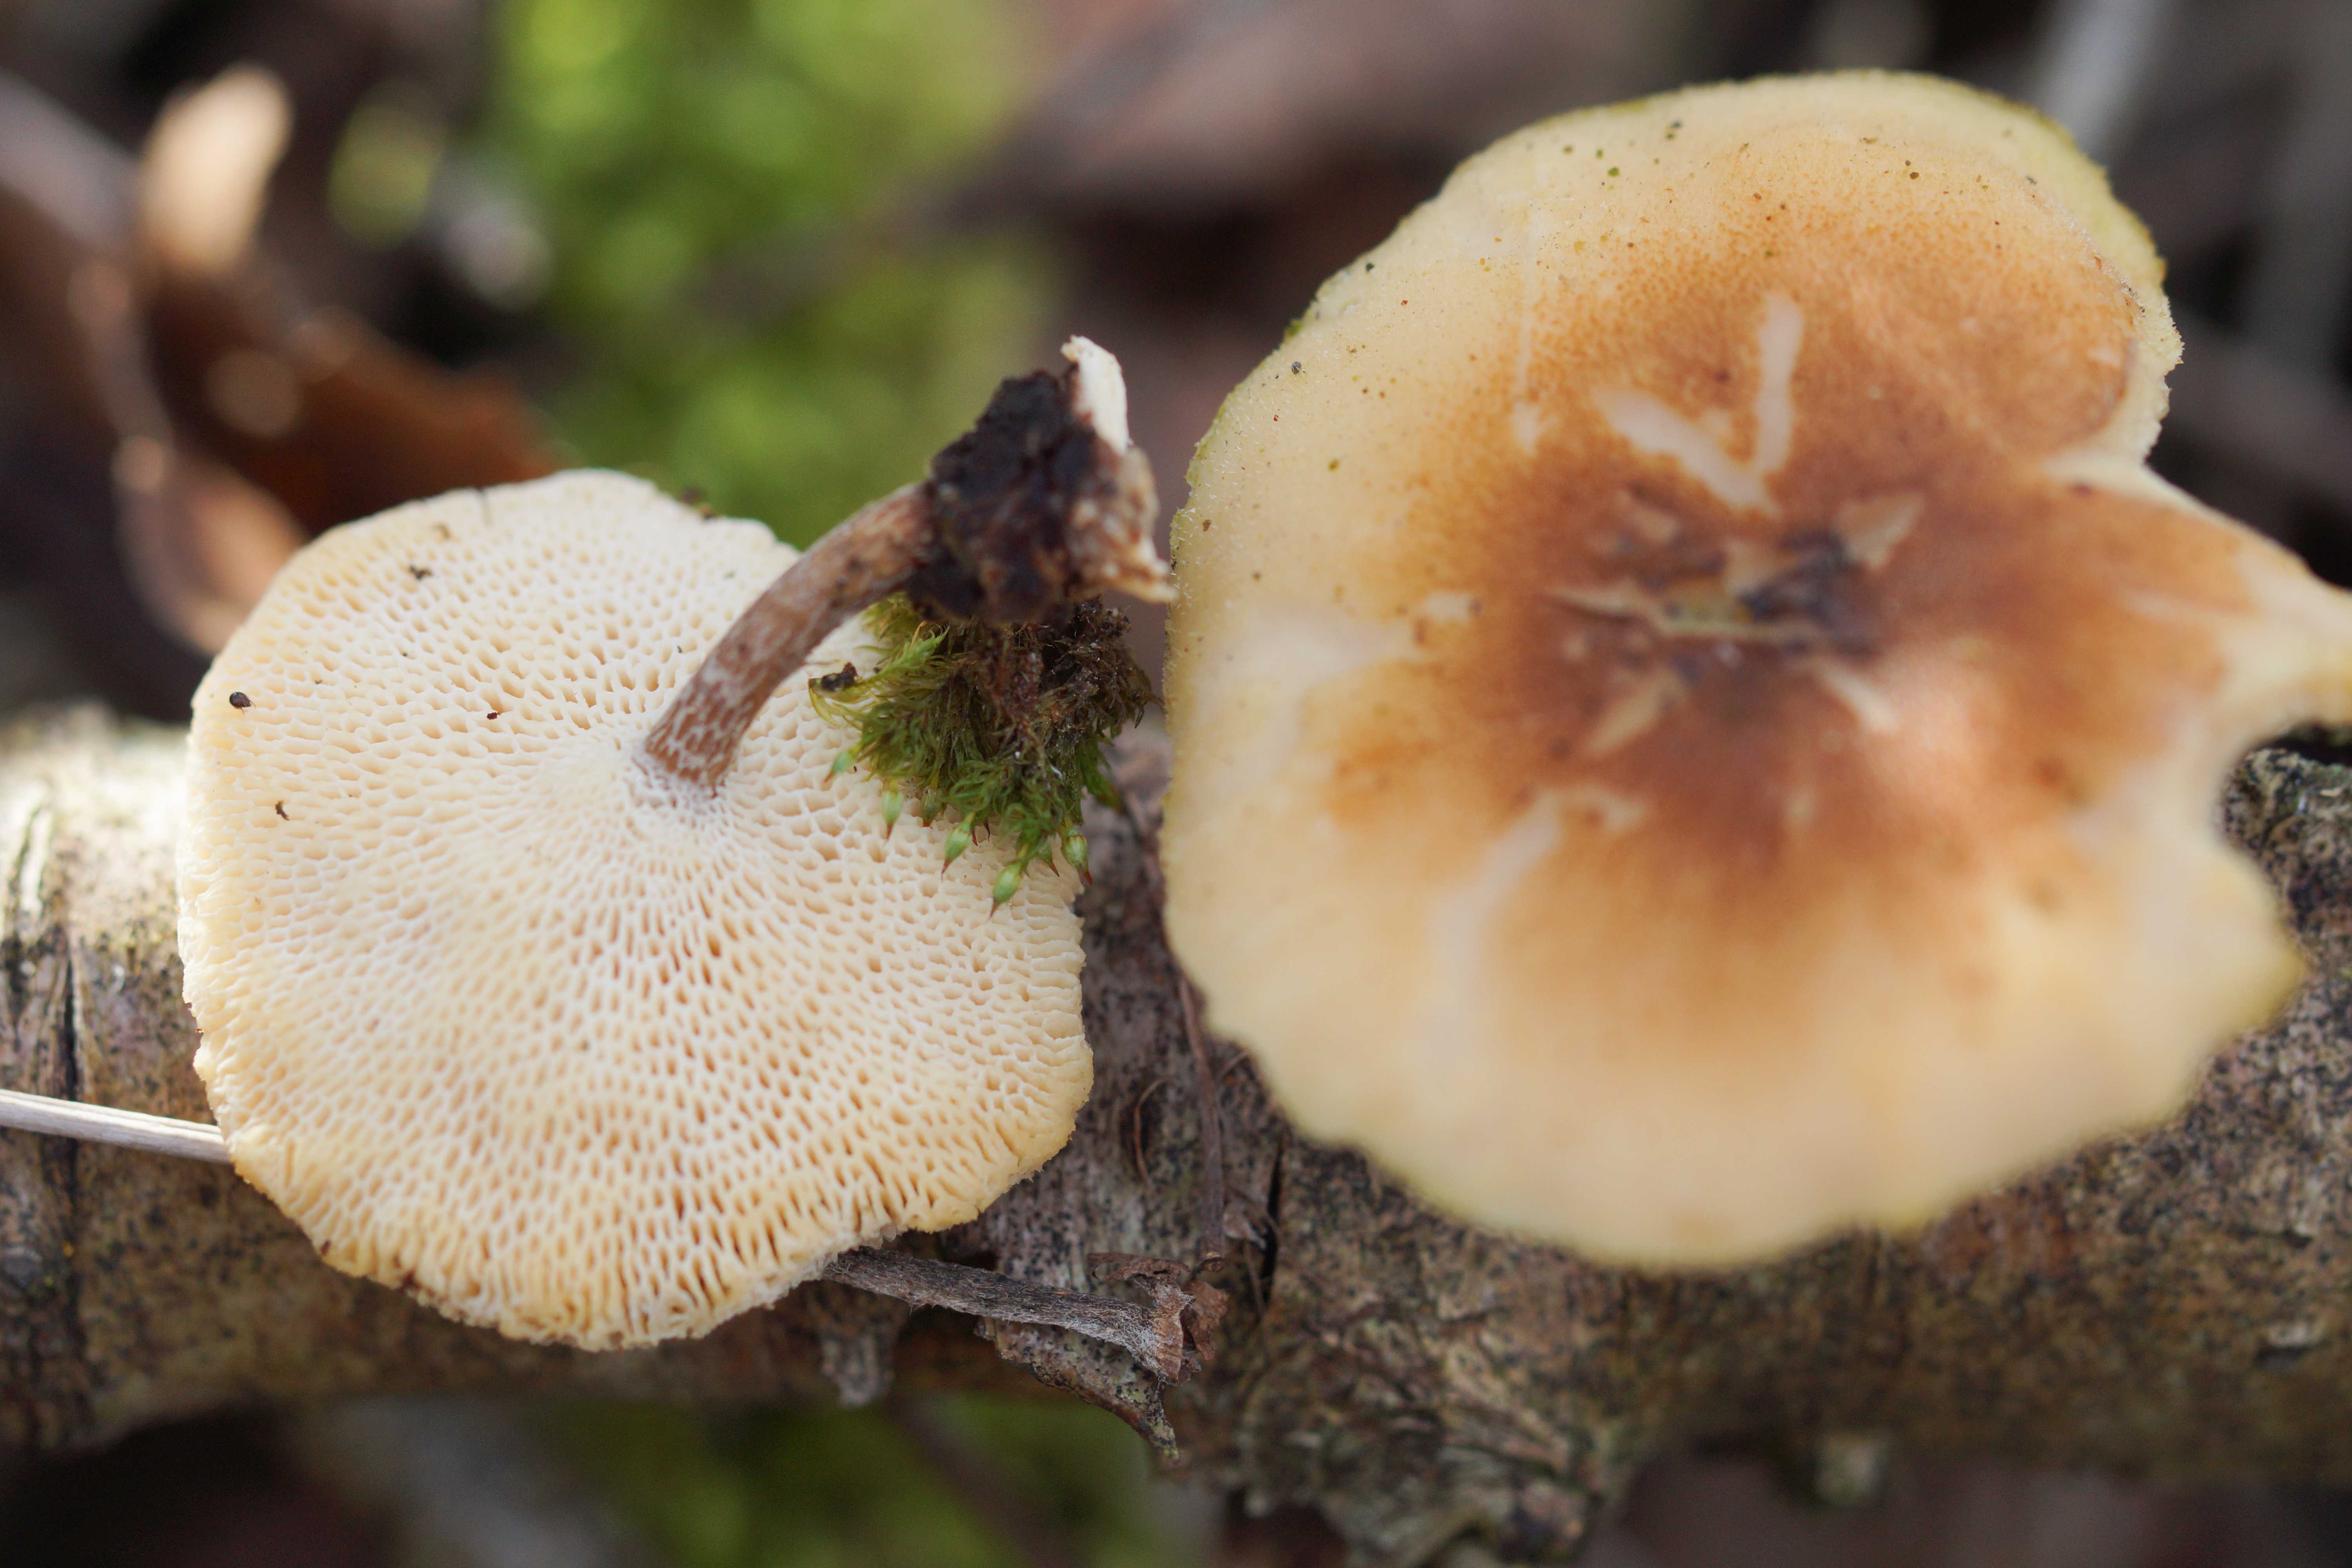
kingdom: Fungi
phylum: Basidiomycota
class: Agaricomycetes
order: Polyporales
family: Polyporaceae
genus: Lentinus
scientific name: Lentinus brumalis
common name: vinter-stilkporesvamp
